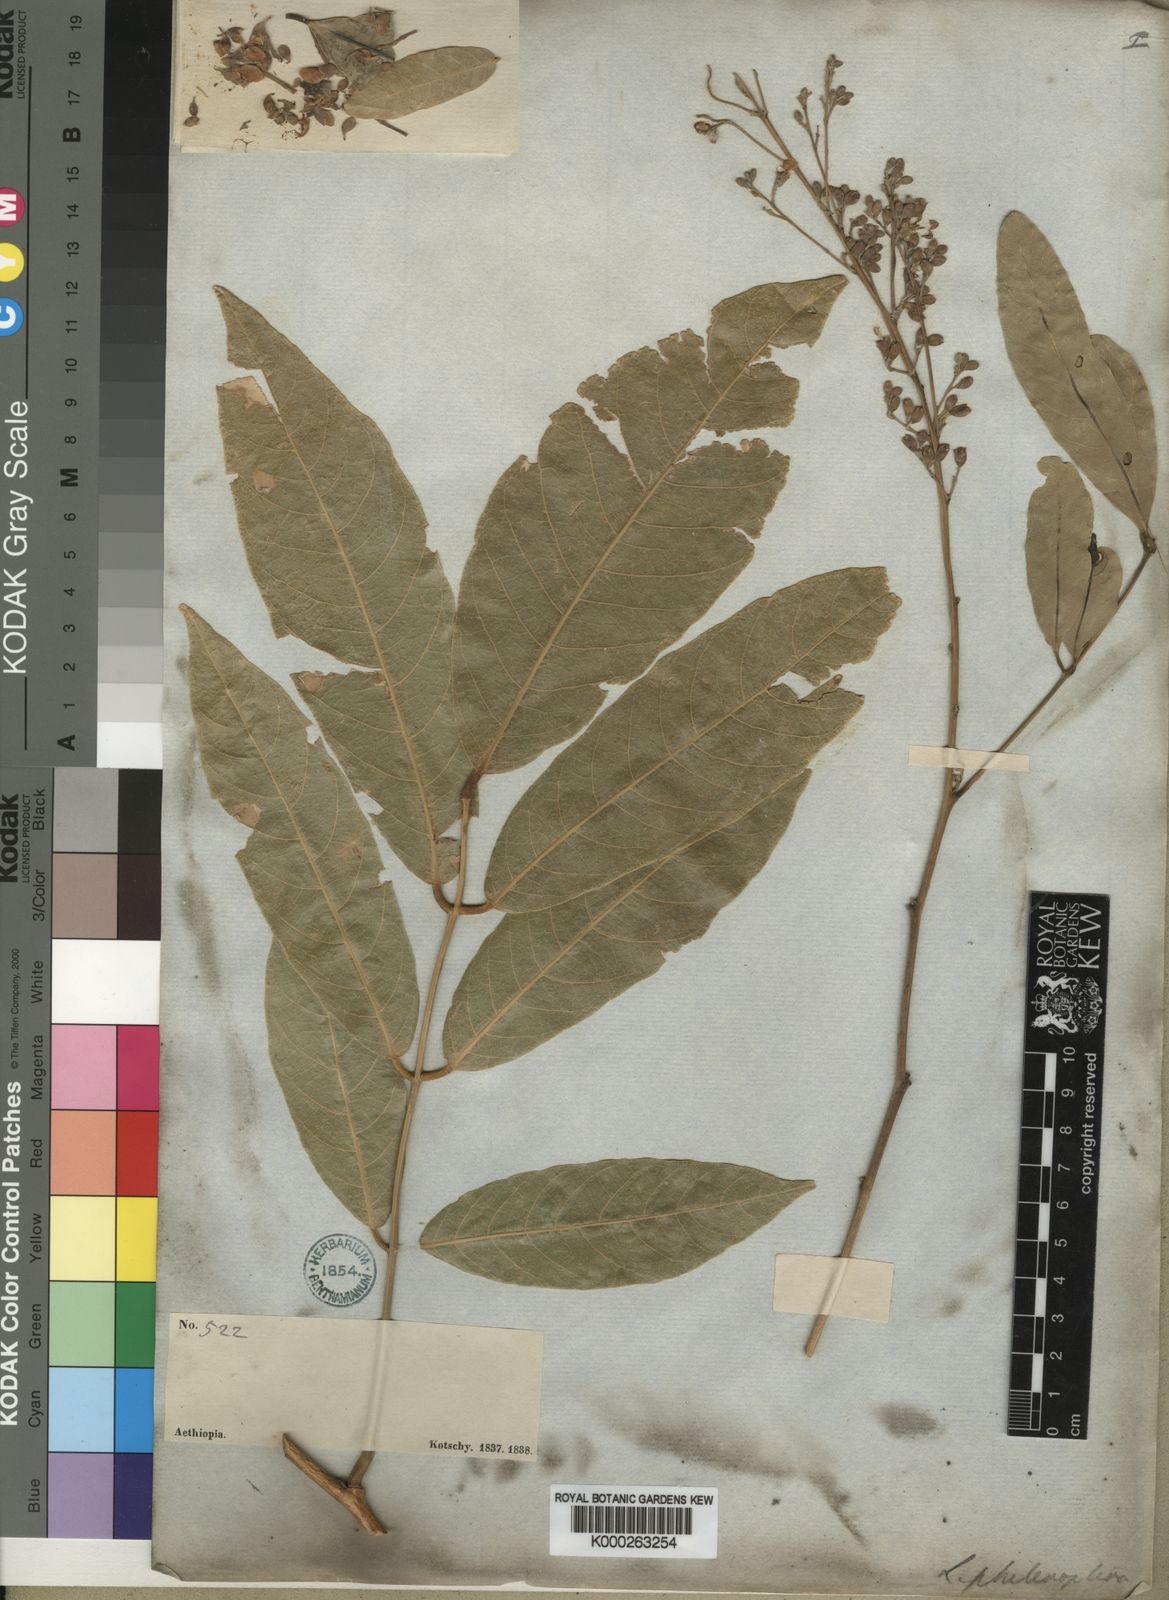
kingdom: Plantae
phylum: Tracheophyta
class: Magnoliopsida
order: Fabales
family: Fabaceae
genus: Philenoptera
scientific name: Philenoptera laxiflora
